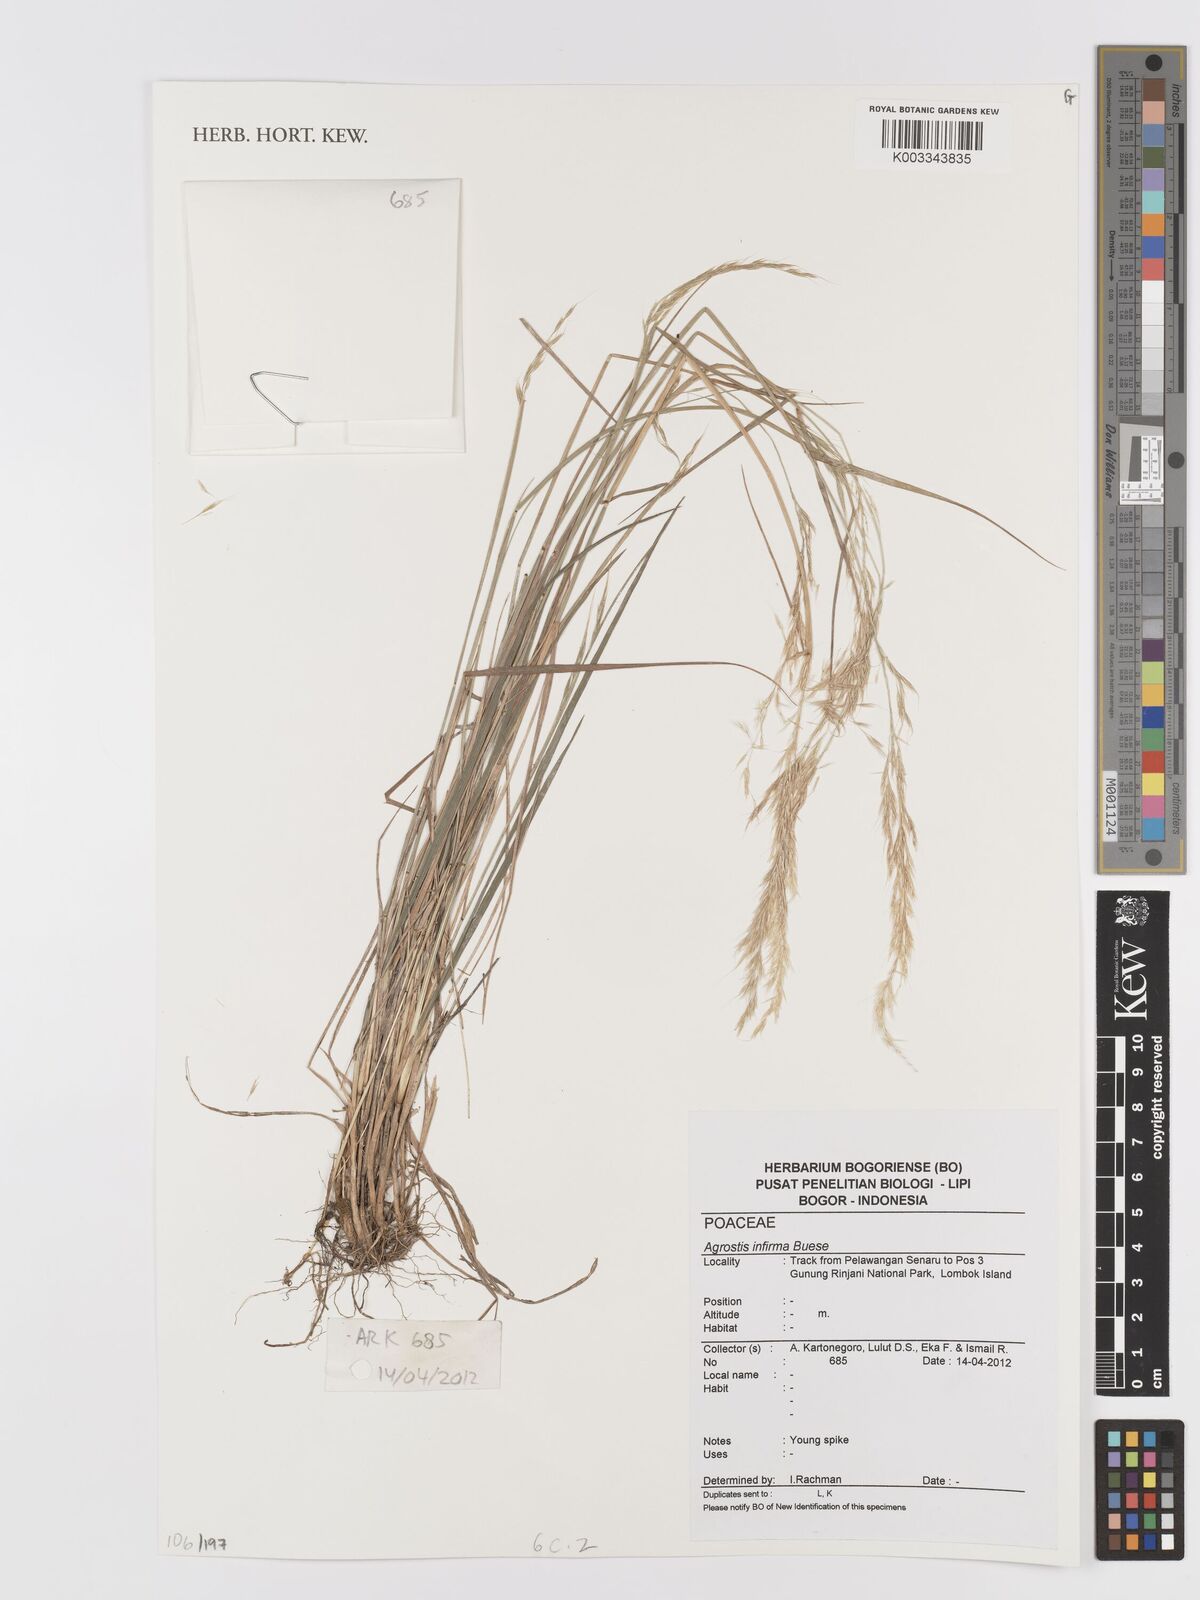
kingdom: Plantae
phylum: Tracheophyta
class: Liliopsida
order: Poales
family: Poaceae
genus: Agrostis
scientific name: Agrostis infirma
